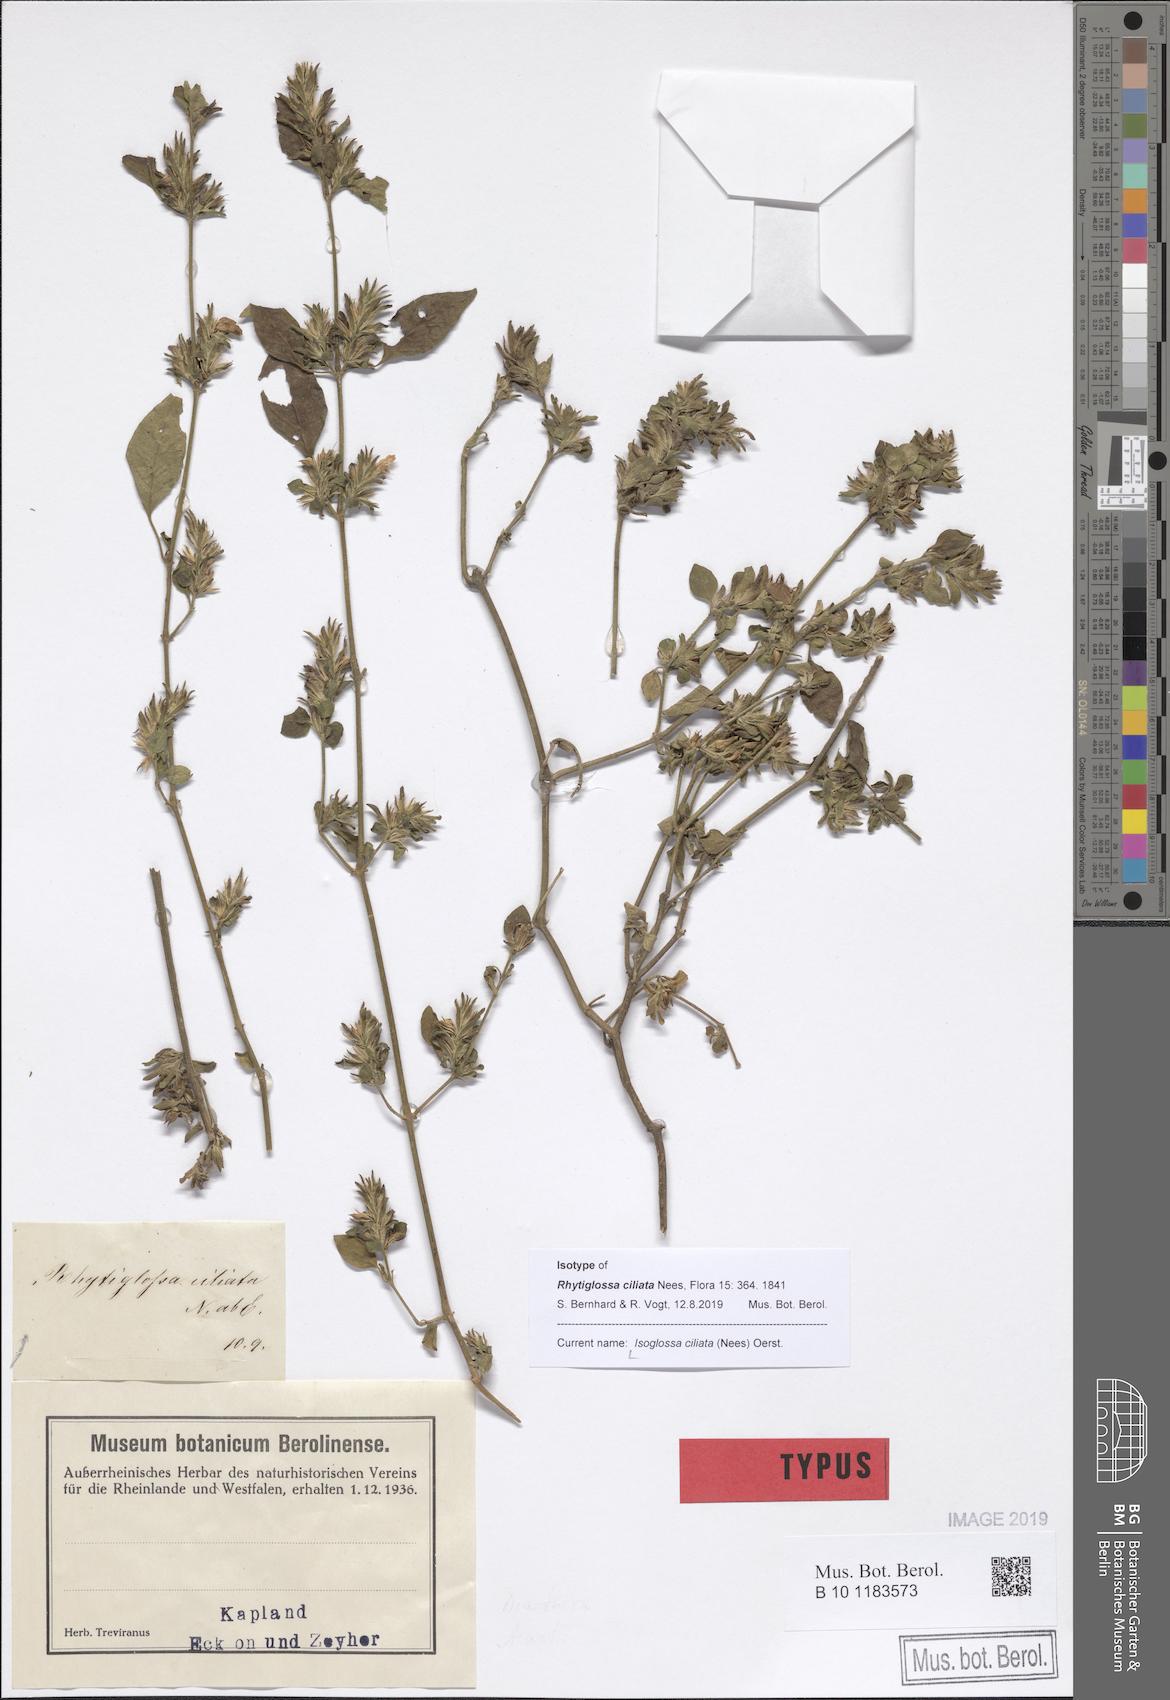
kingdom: Plantae
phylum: Tracheophyta
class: Magnoliopsida
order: Lamiales
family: Acanthaceae
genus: Isoglossa
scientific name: Isoglossa ciliata
